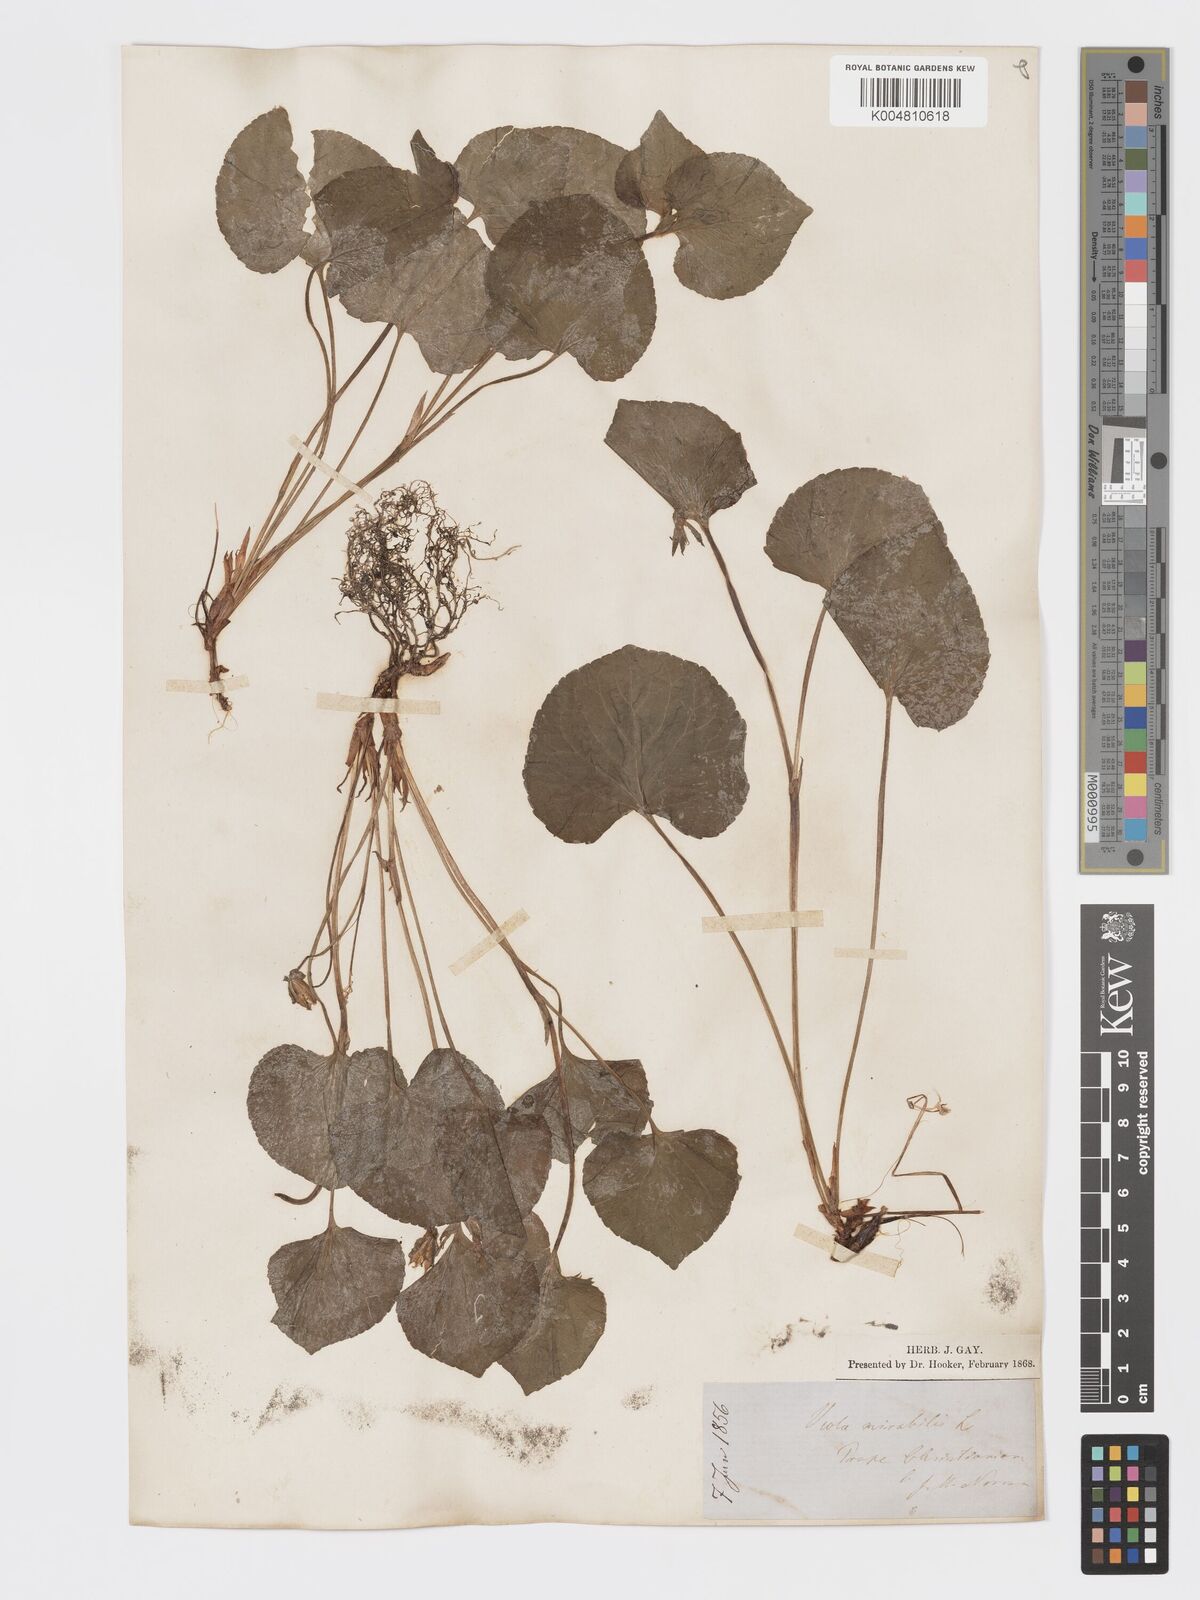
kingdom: Plantae
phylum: Tracheophyta
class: Magnoliopsida
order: Malpighiales
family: Violaceae
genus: Viola
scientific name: Viola mirabilis
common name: Wonder violet
